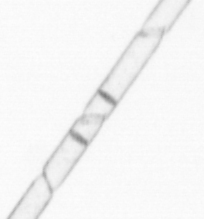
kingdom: Chromista
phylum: Ochrophyta
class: Bacillariophyceae
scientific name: Bacillariophyceae
